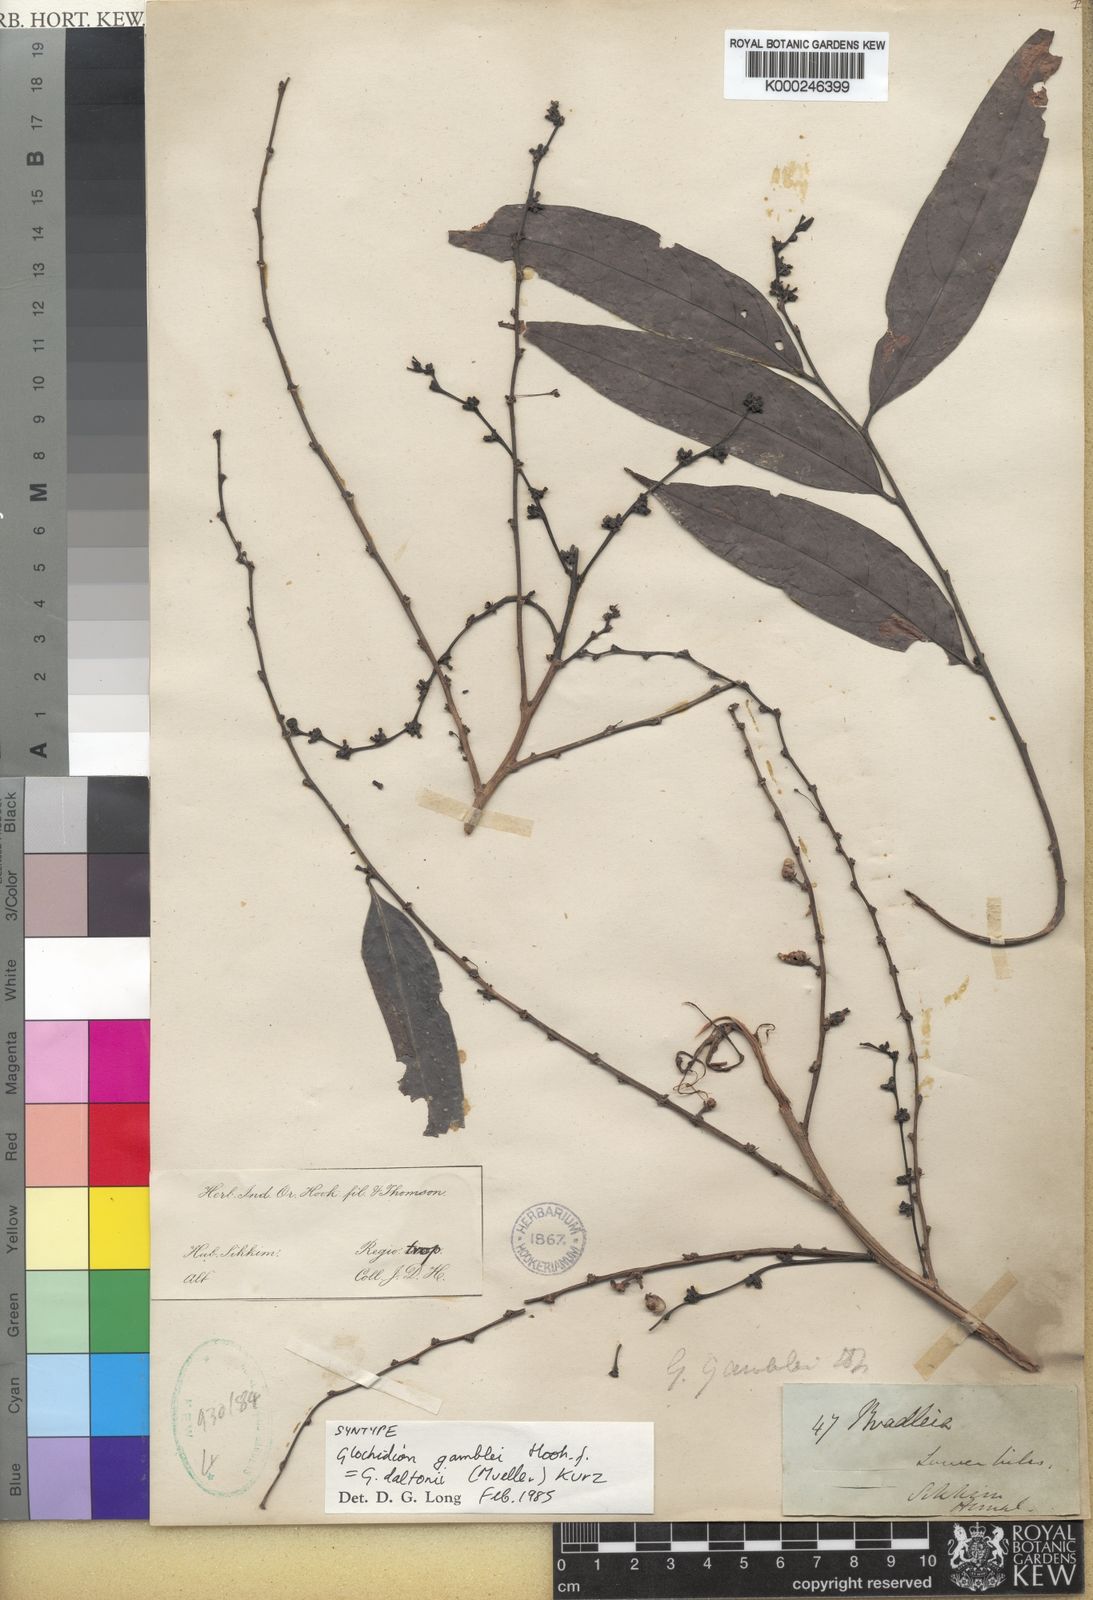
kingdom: Plantae
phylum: Tracheophyta
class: Magnoliopsida
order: Malpighiales
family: Phyllanthaceae
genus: Glochidion
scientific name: Glochidion
